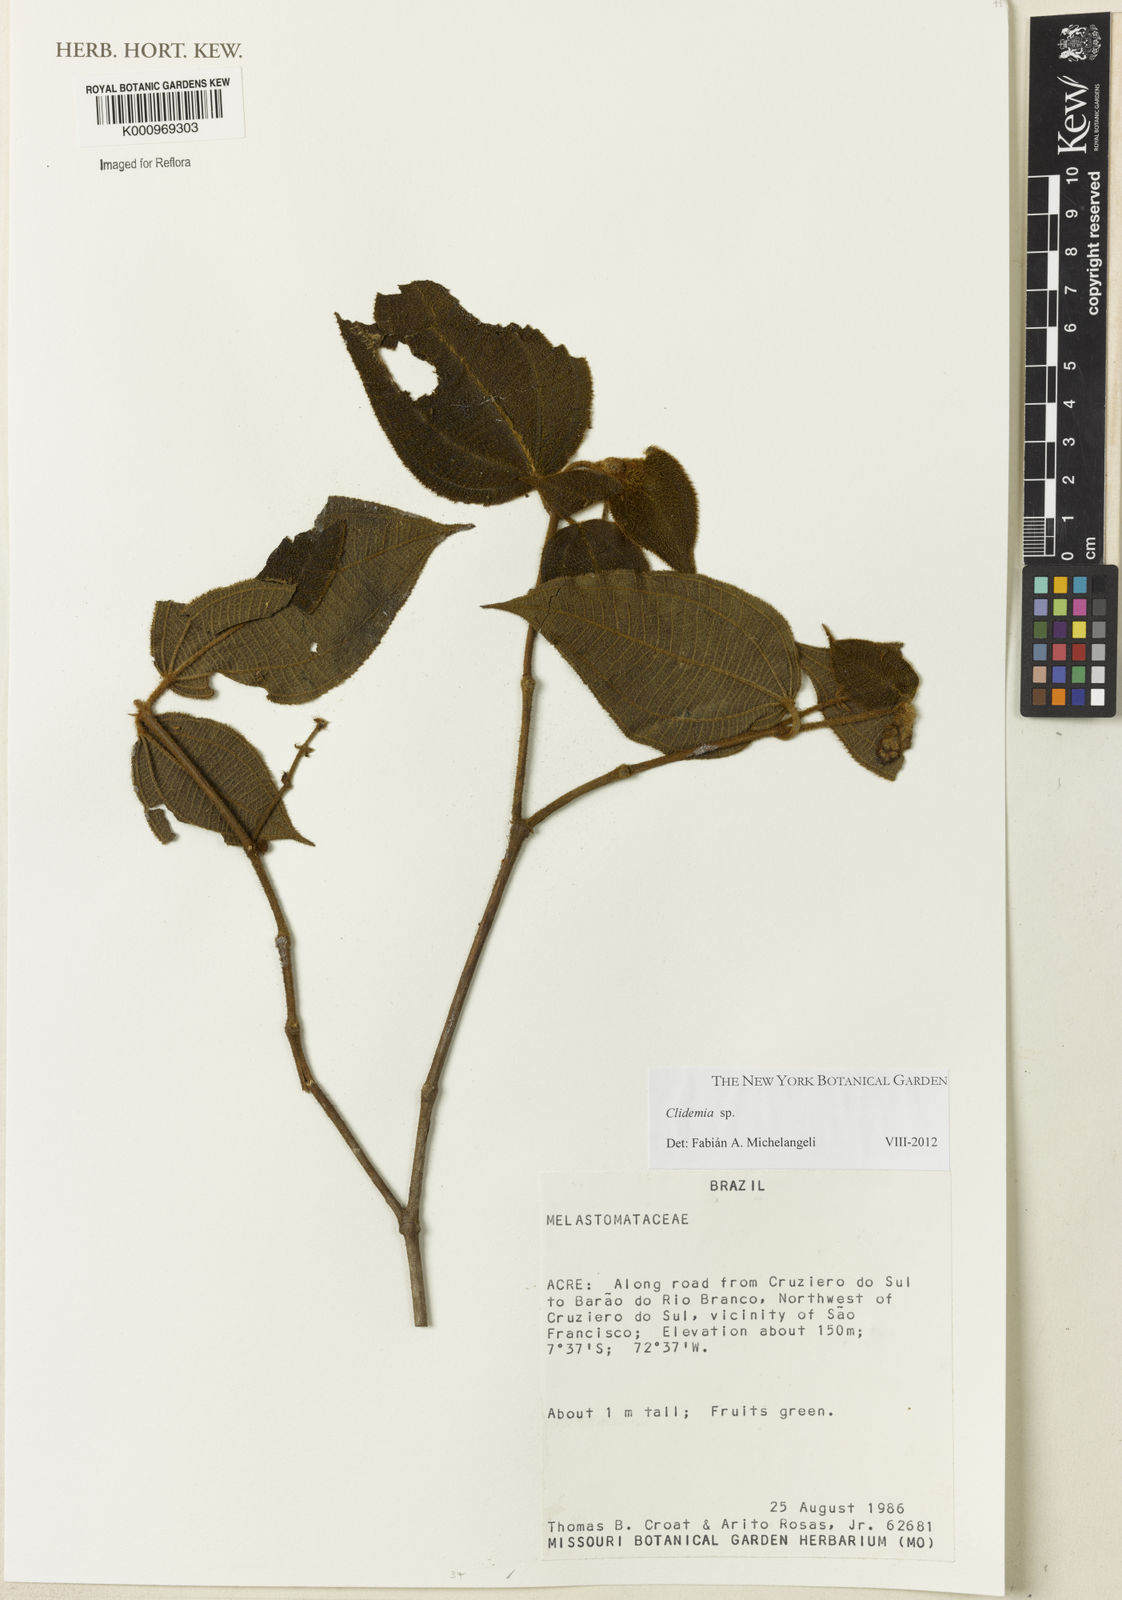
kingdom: Plantae
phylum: Tracheophyta
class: Magnoliopsida
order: Myrtales
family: Melastomataceae
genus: Miconia
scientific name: Miconia
